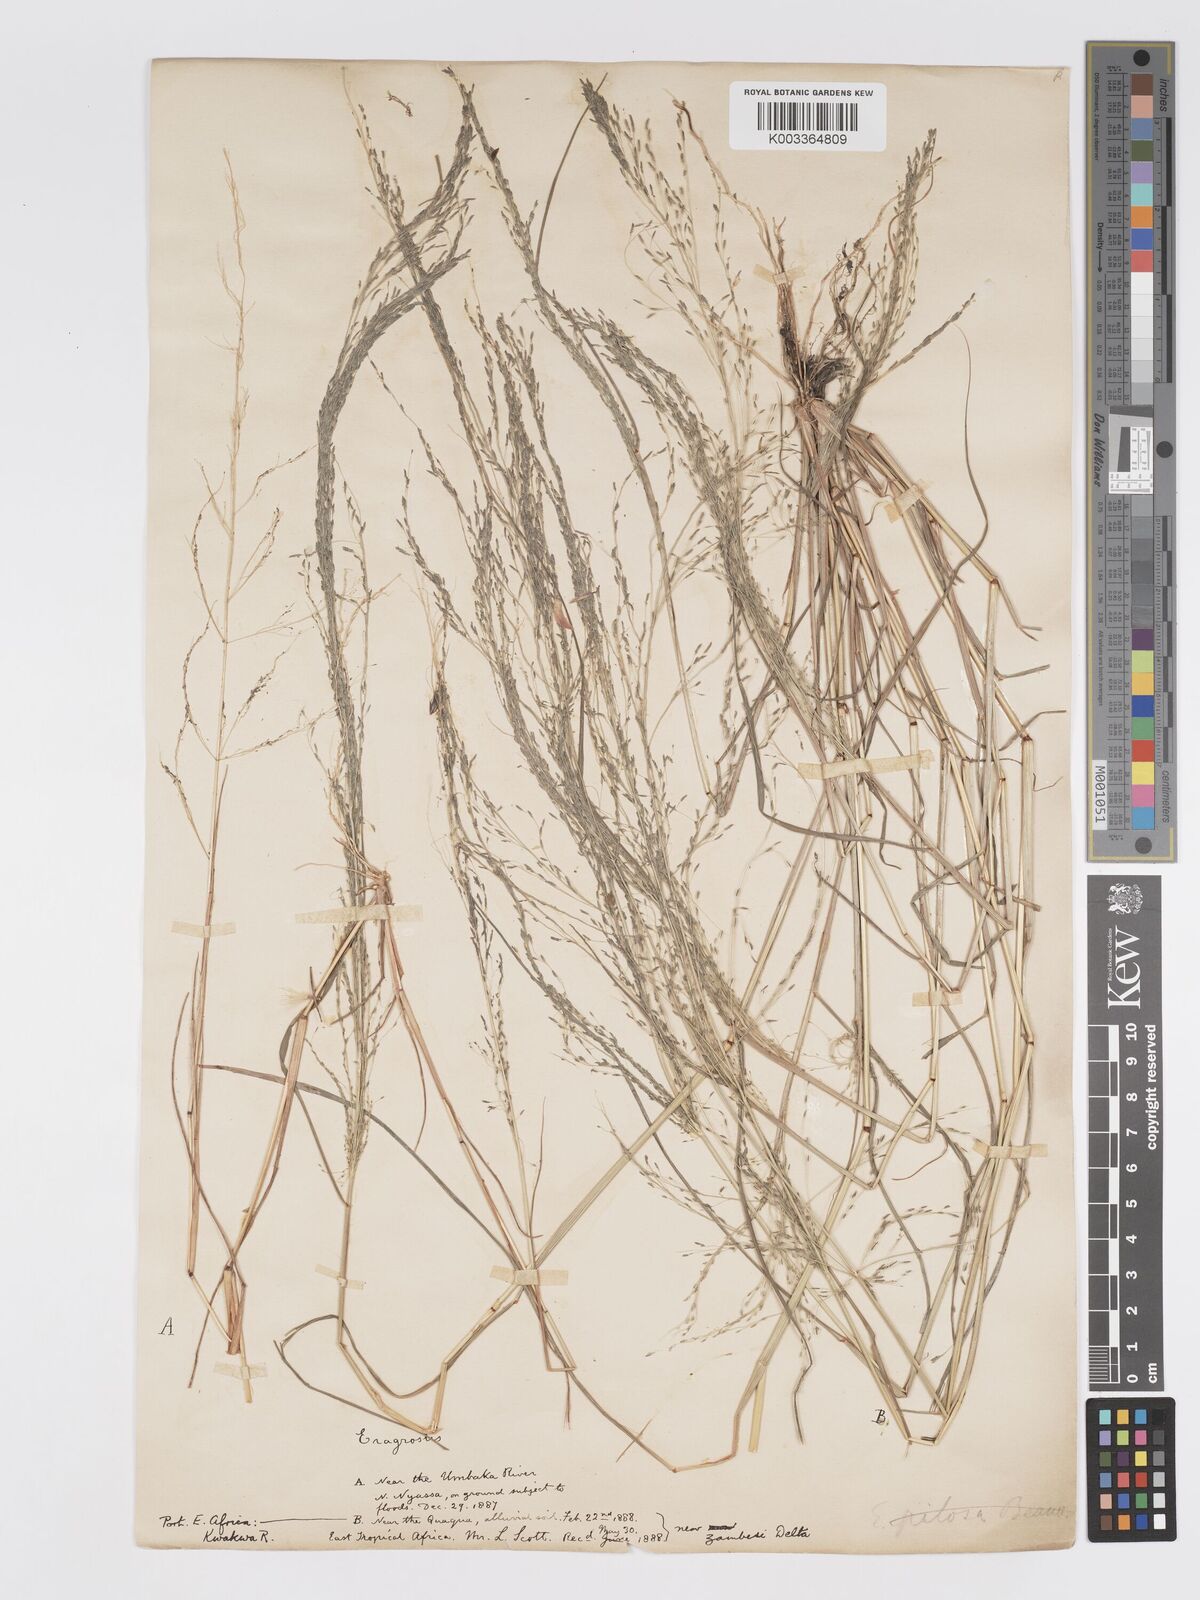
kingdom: Plantae
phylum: Tracheophyta
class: Liliopsida
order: Poales
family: Poaceae
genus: Eragrostis
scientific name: Eragrostis aethiopica
